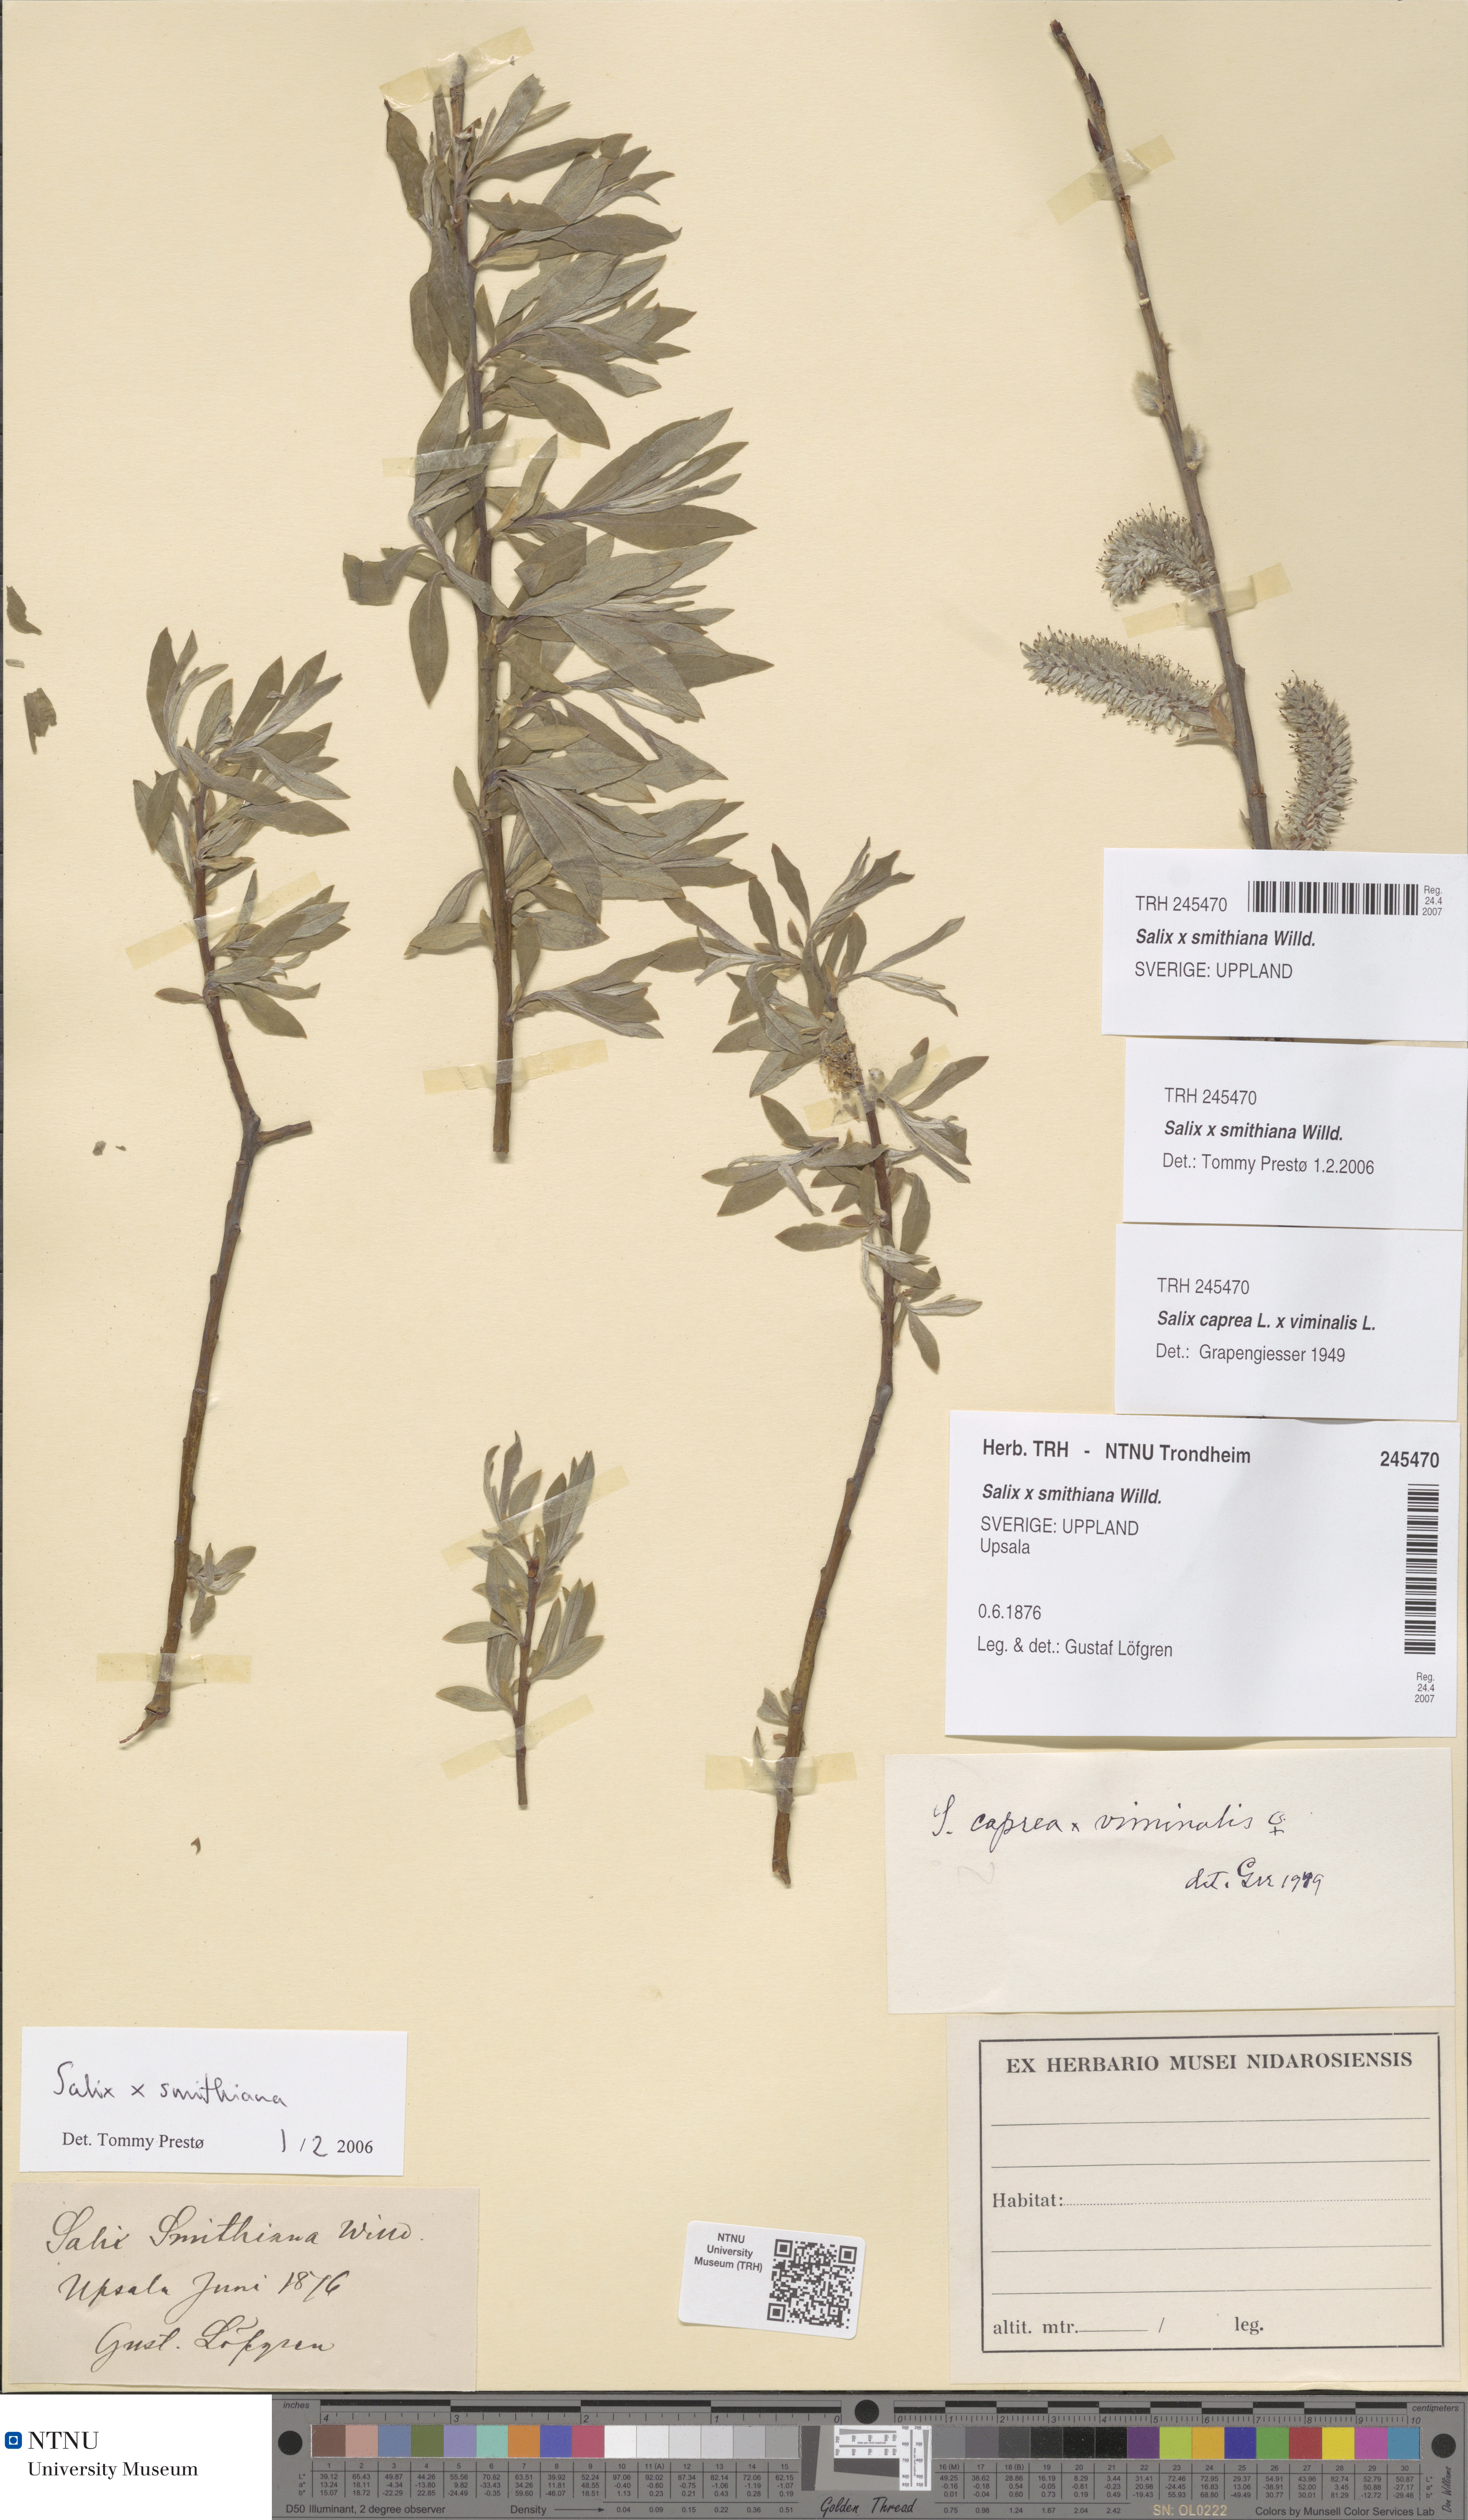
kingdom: Plantae
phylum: Tracheophyta
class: Magnoliopsida
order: Malpighiales
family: Salicaceae
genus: Salix
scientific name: Salix smithiana
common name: Silky-leaved osier
